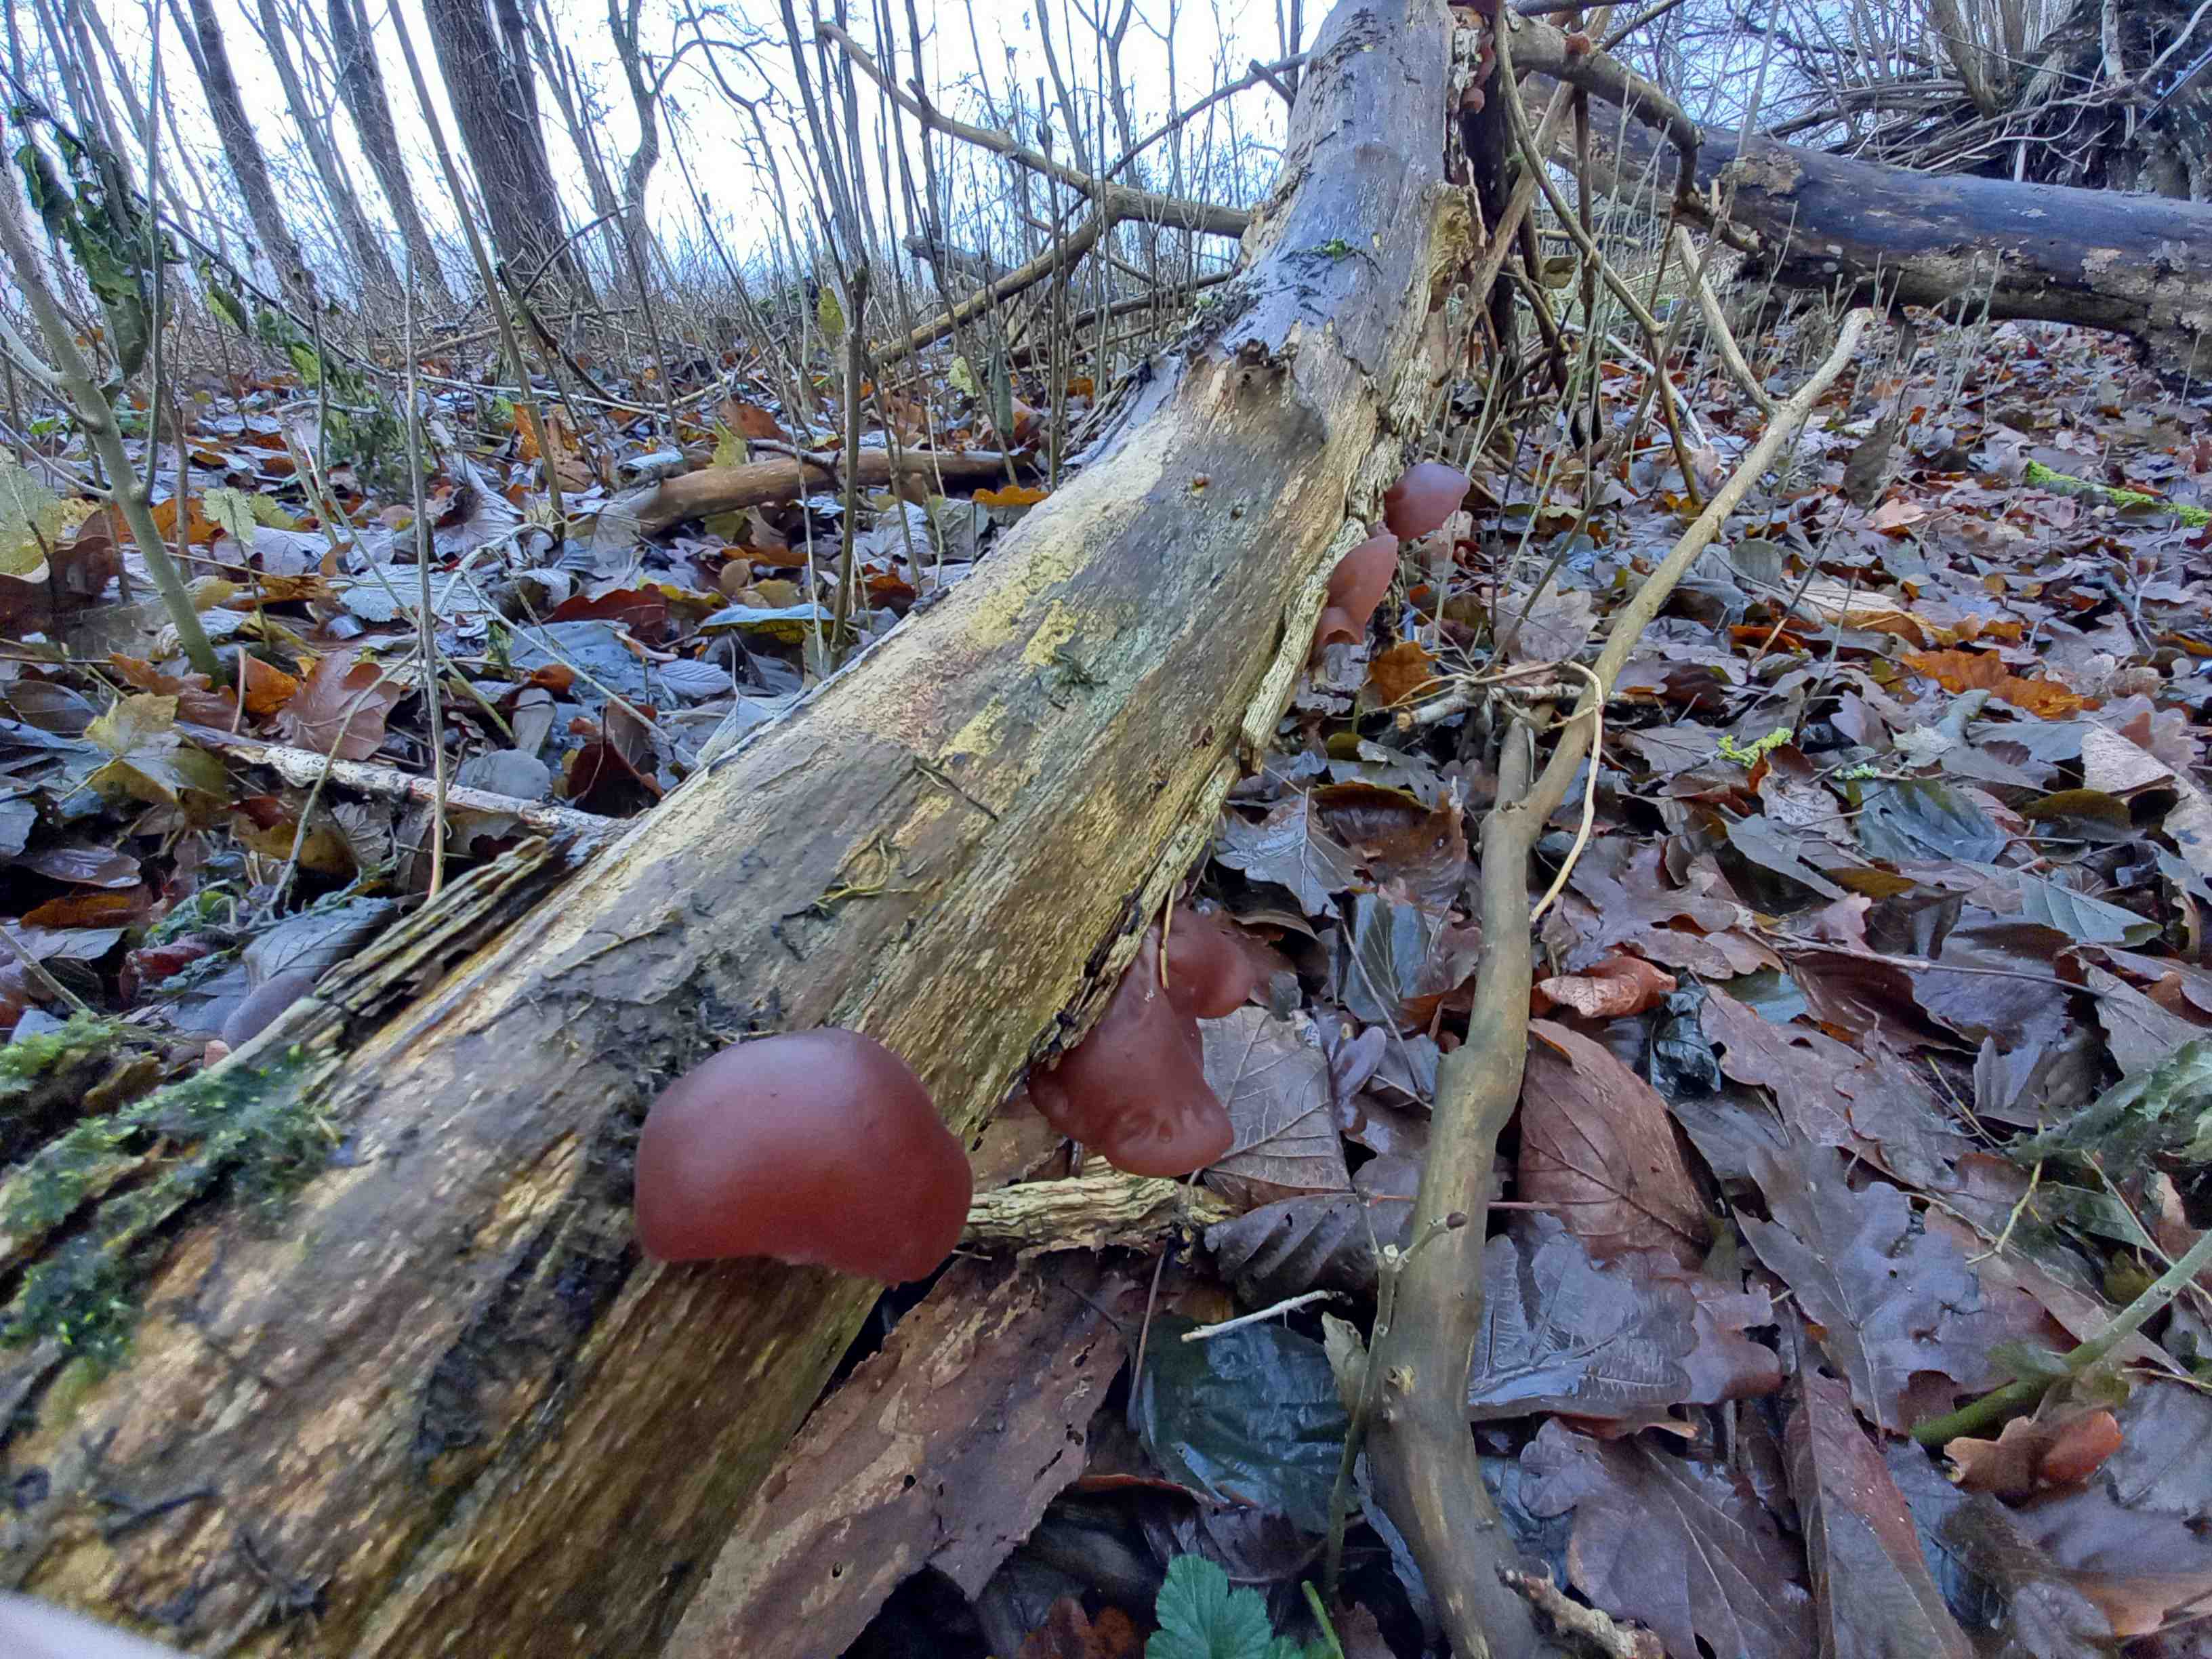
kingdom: Fungi
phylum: Basidiomycota
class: Agaricomycetes
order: Auriculariales
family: Auriculariaceae
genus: Auricularia
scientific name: Auricularia auricula-judae
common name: almindelig judasøre
